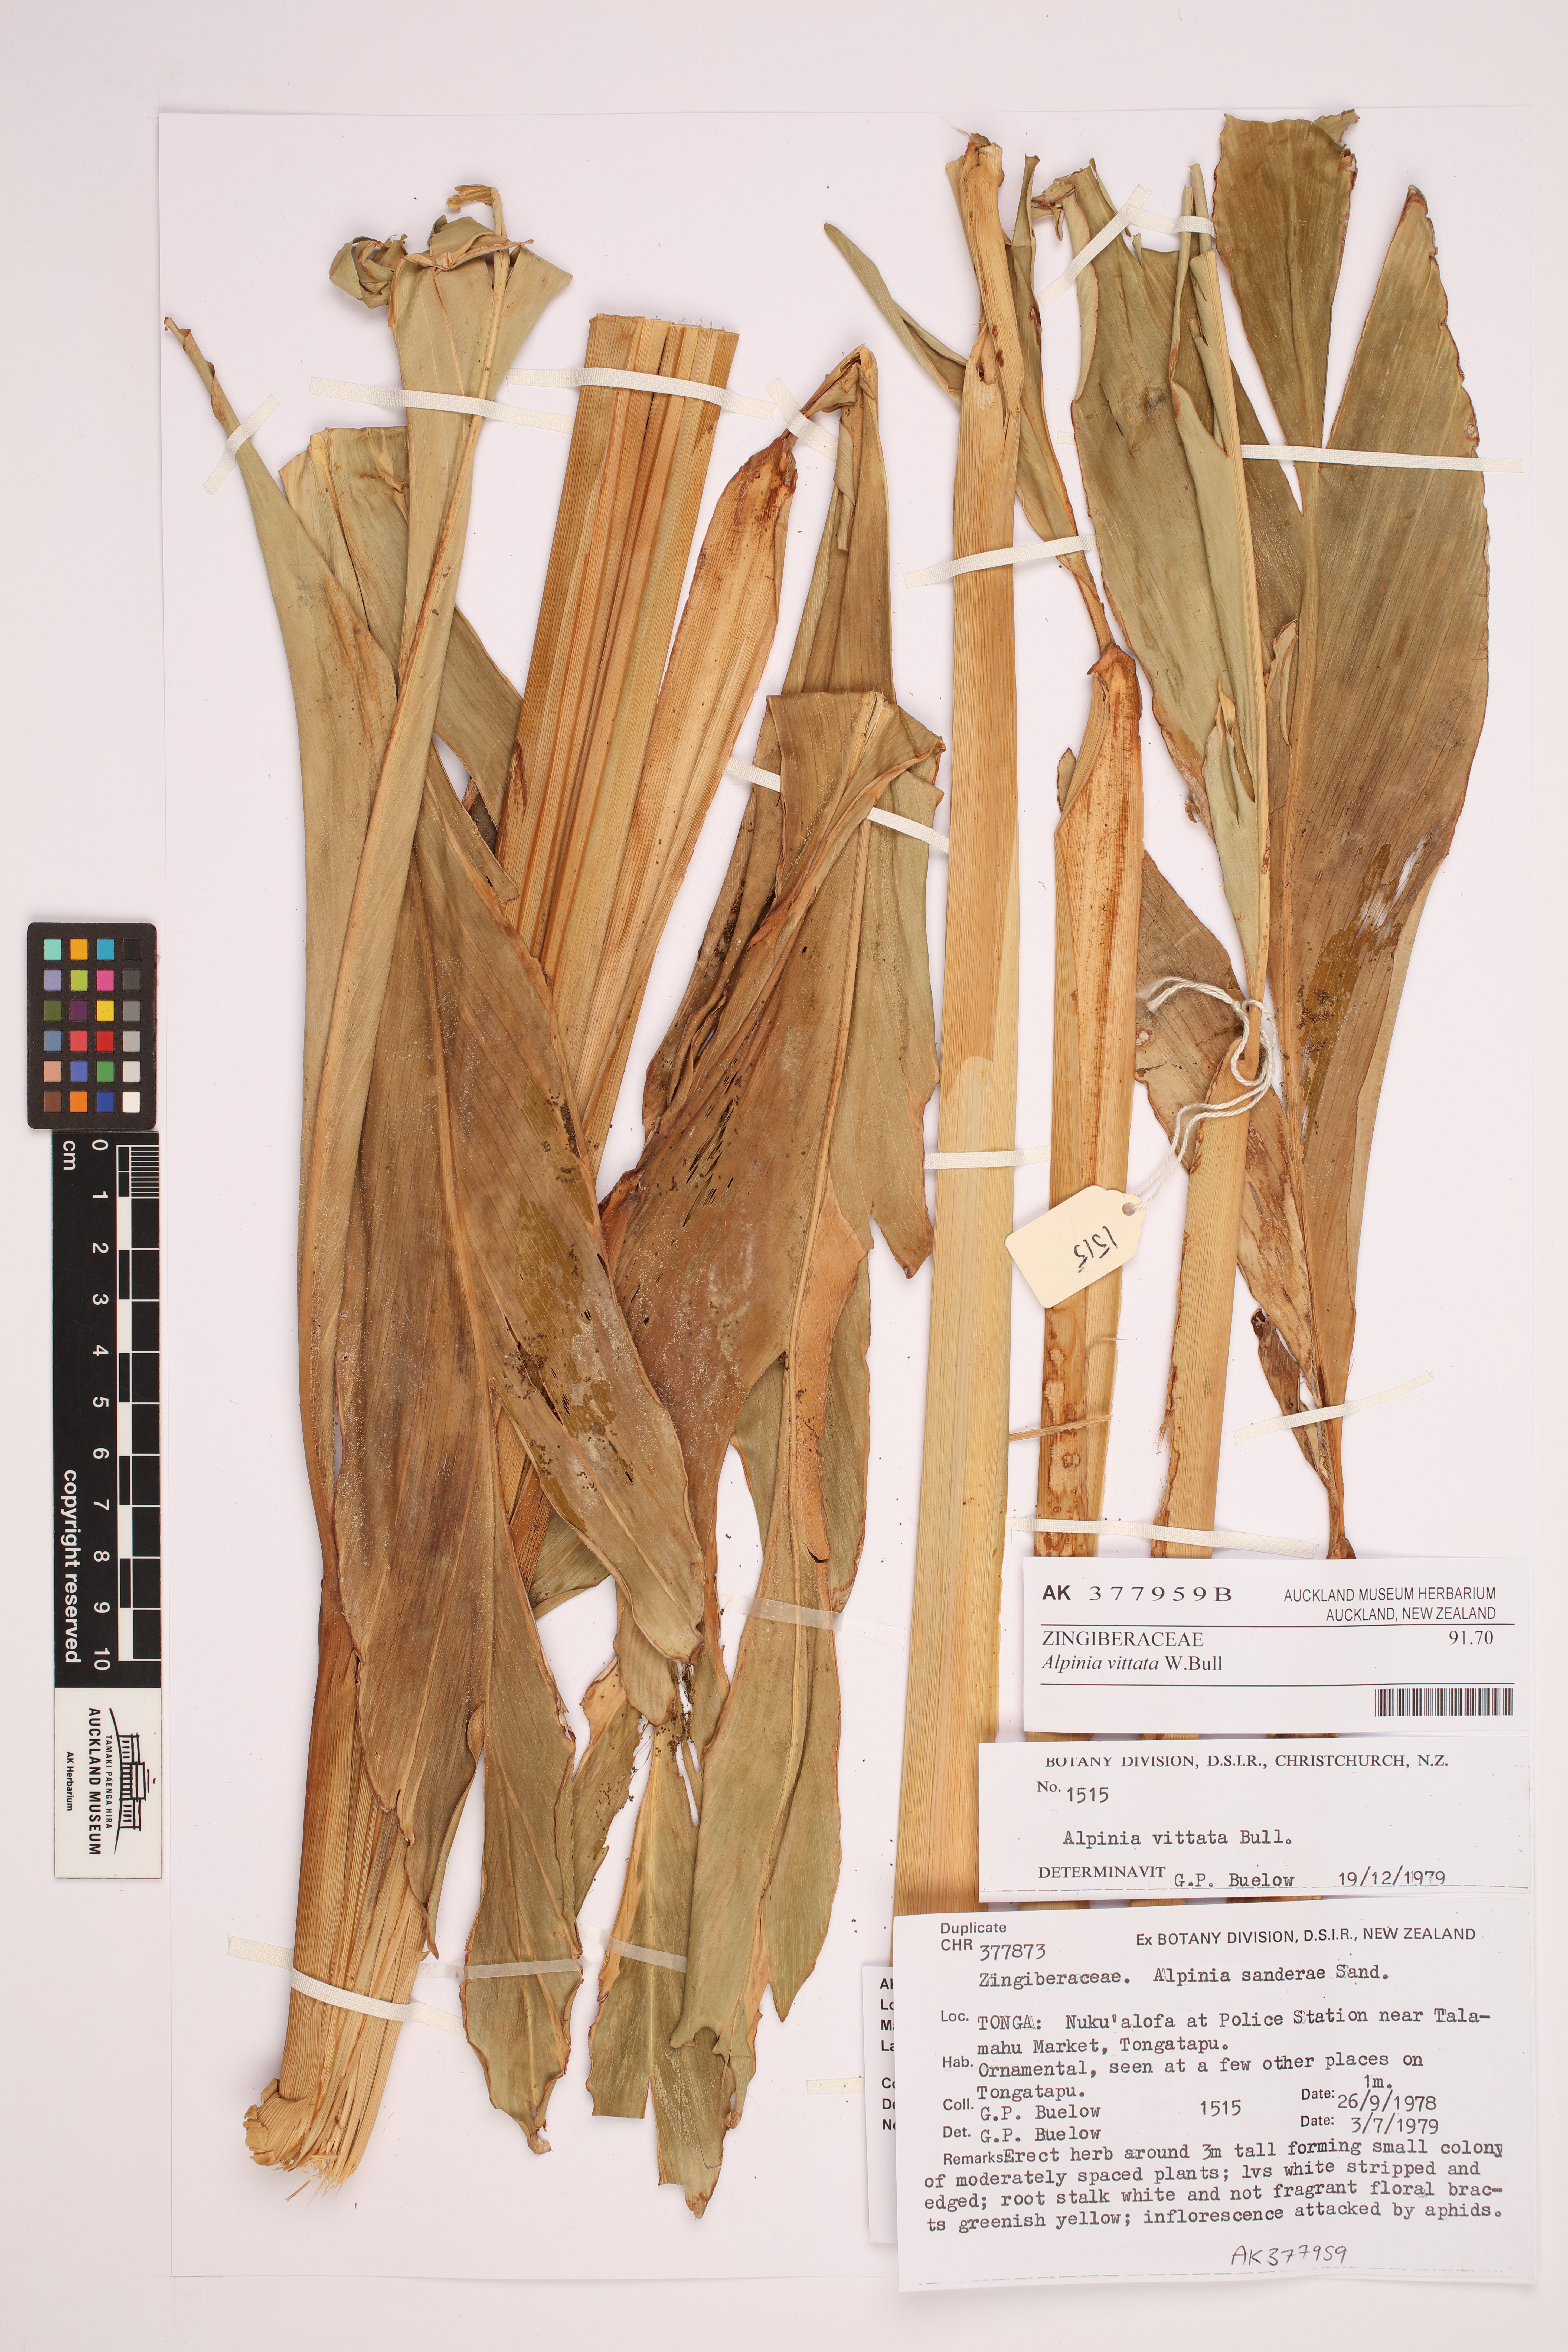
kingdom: Plantae
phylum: Tracheophyta
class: Liliopsida
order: Zingiberales
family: Zingiberaceae
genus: Alpinia
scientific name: Alpinia vittata
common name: Variegate-ginger
